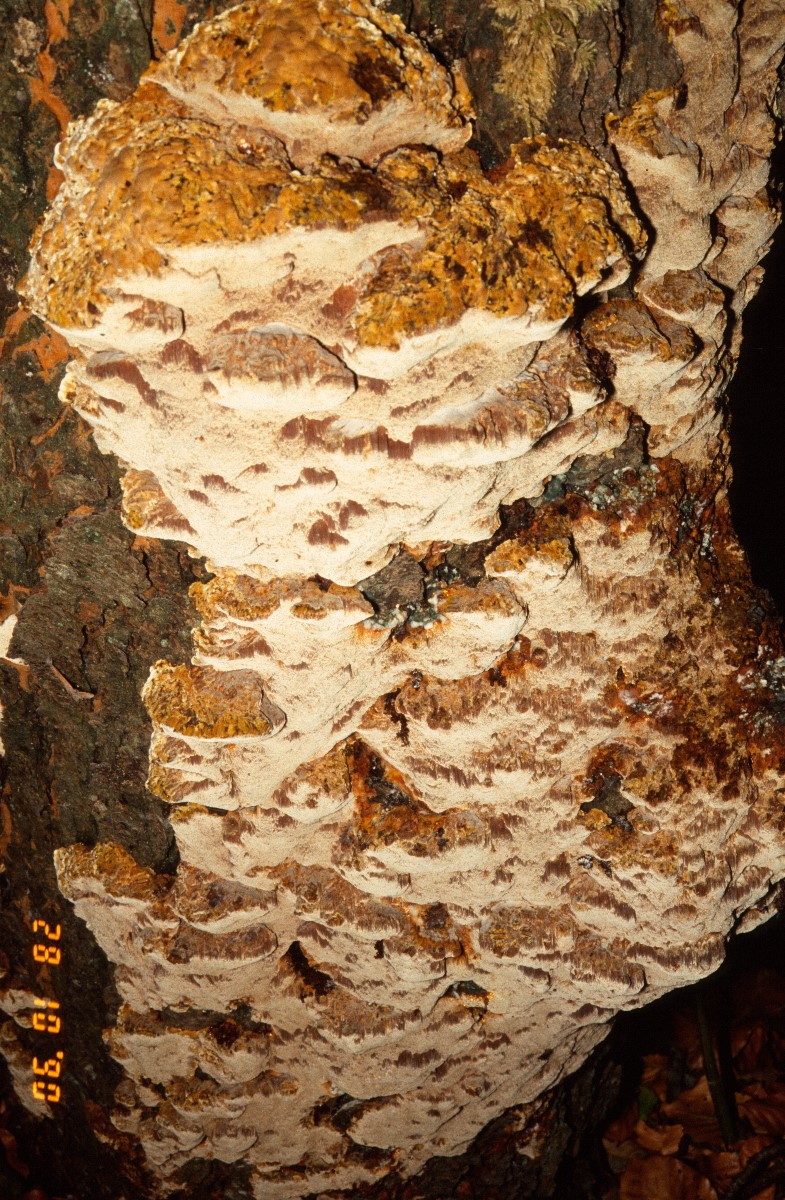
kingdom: Fungi
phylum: Basidiomycota
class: Agaricomycetes
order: Hymenochaetales
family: Hymenochaetaceae
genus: Xanthoporia
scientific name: Xanthoporia radiata
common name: elle-spejlporesvamp
